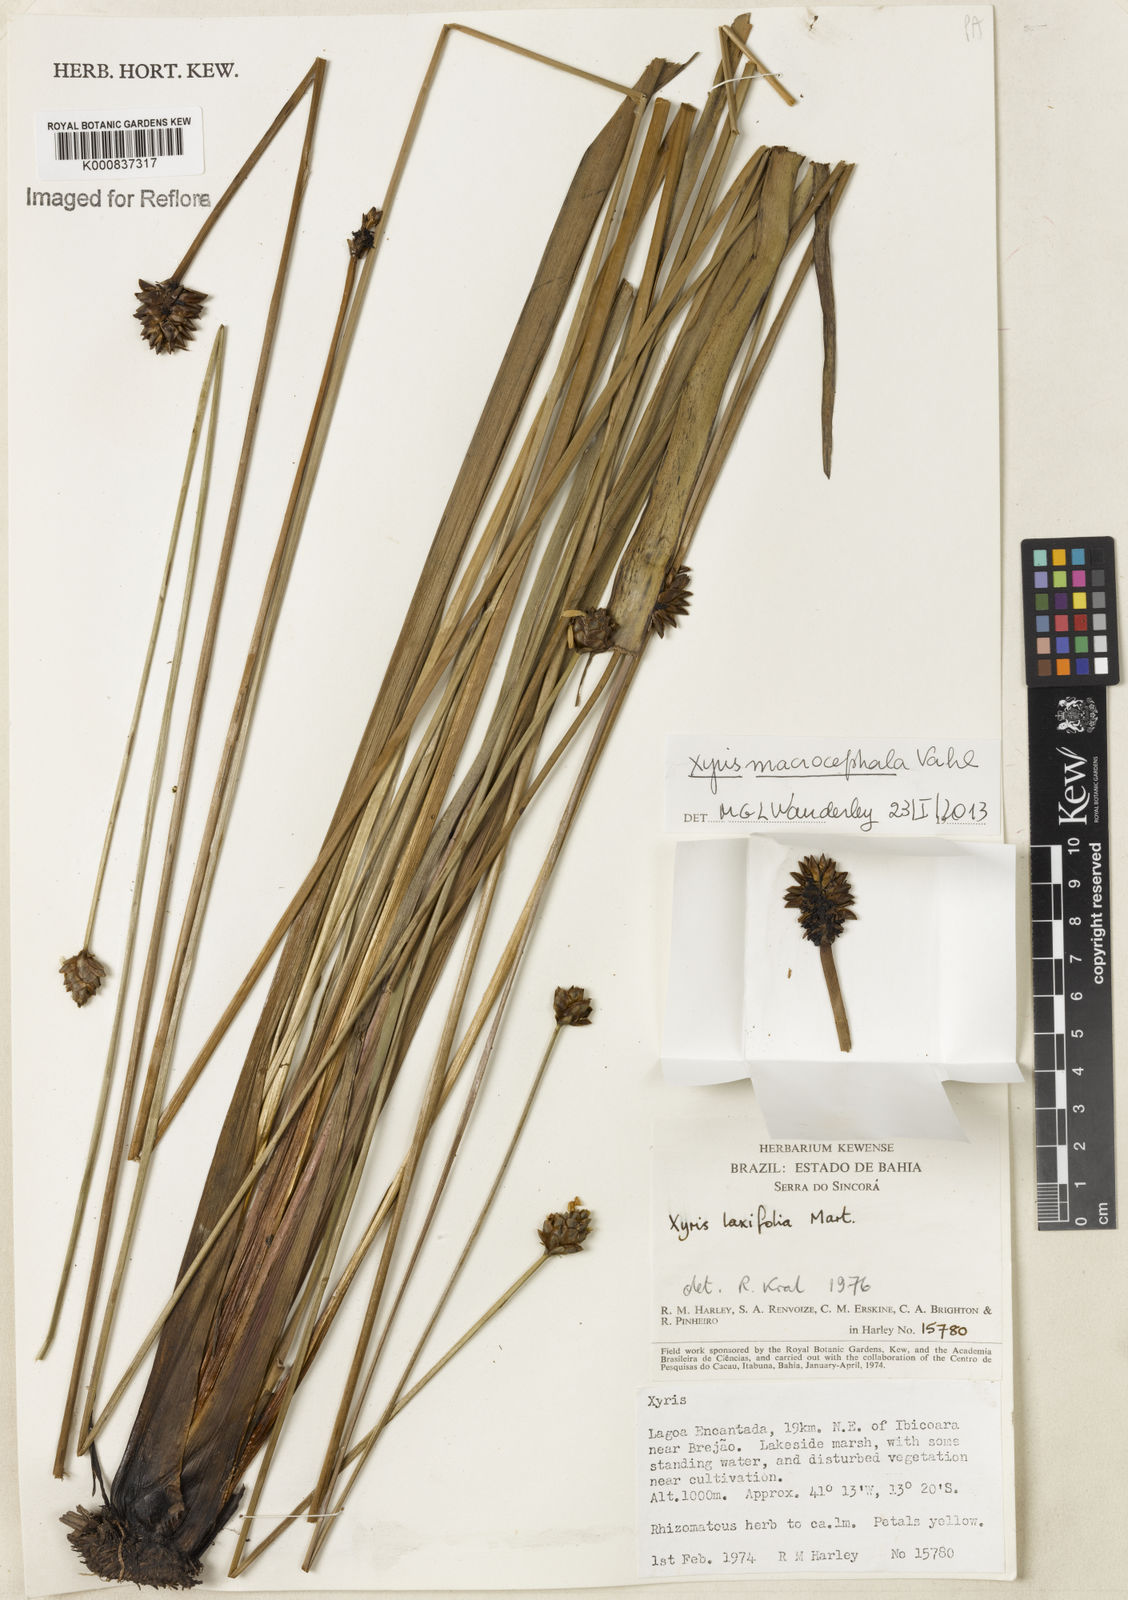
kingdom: Plantae
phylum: Tracheophyta
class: Liliopsida
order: Poales
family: Xyridaceae
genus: Xyris
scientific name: Xyris jupicai
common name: Richard's yelloweyed grass
